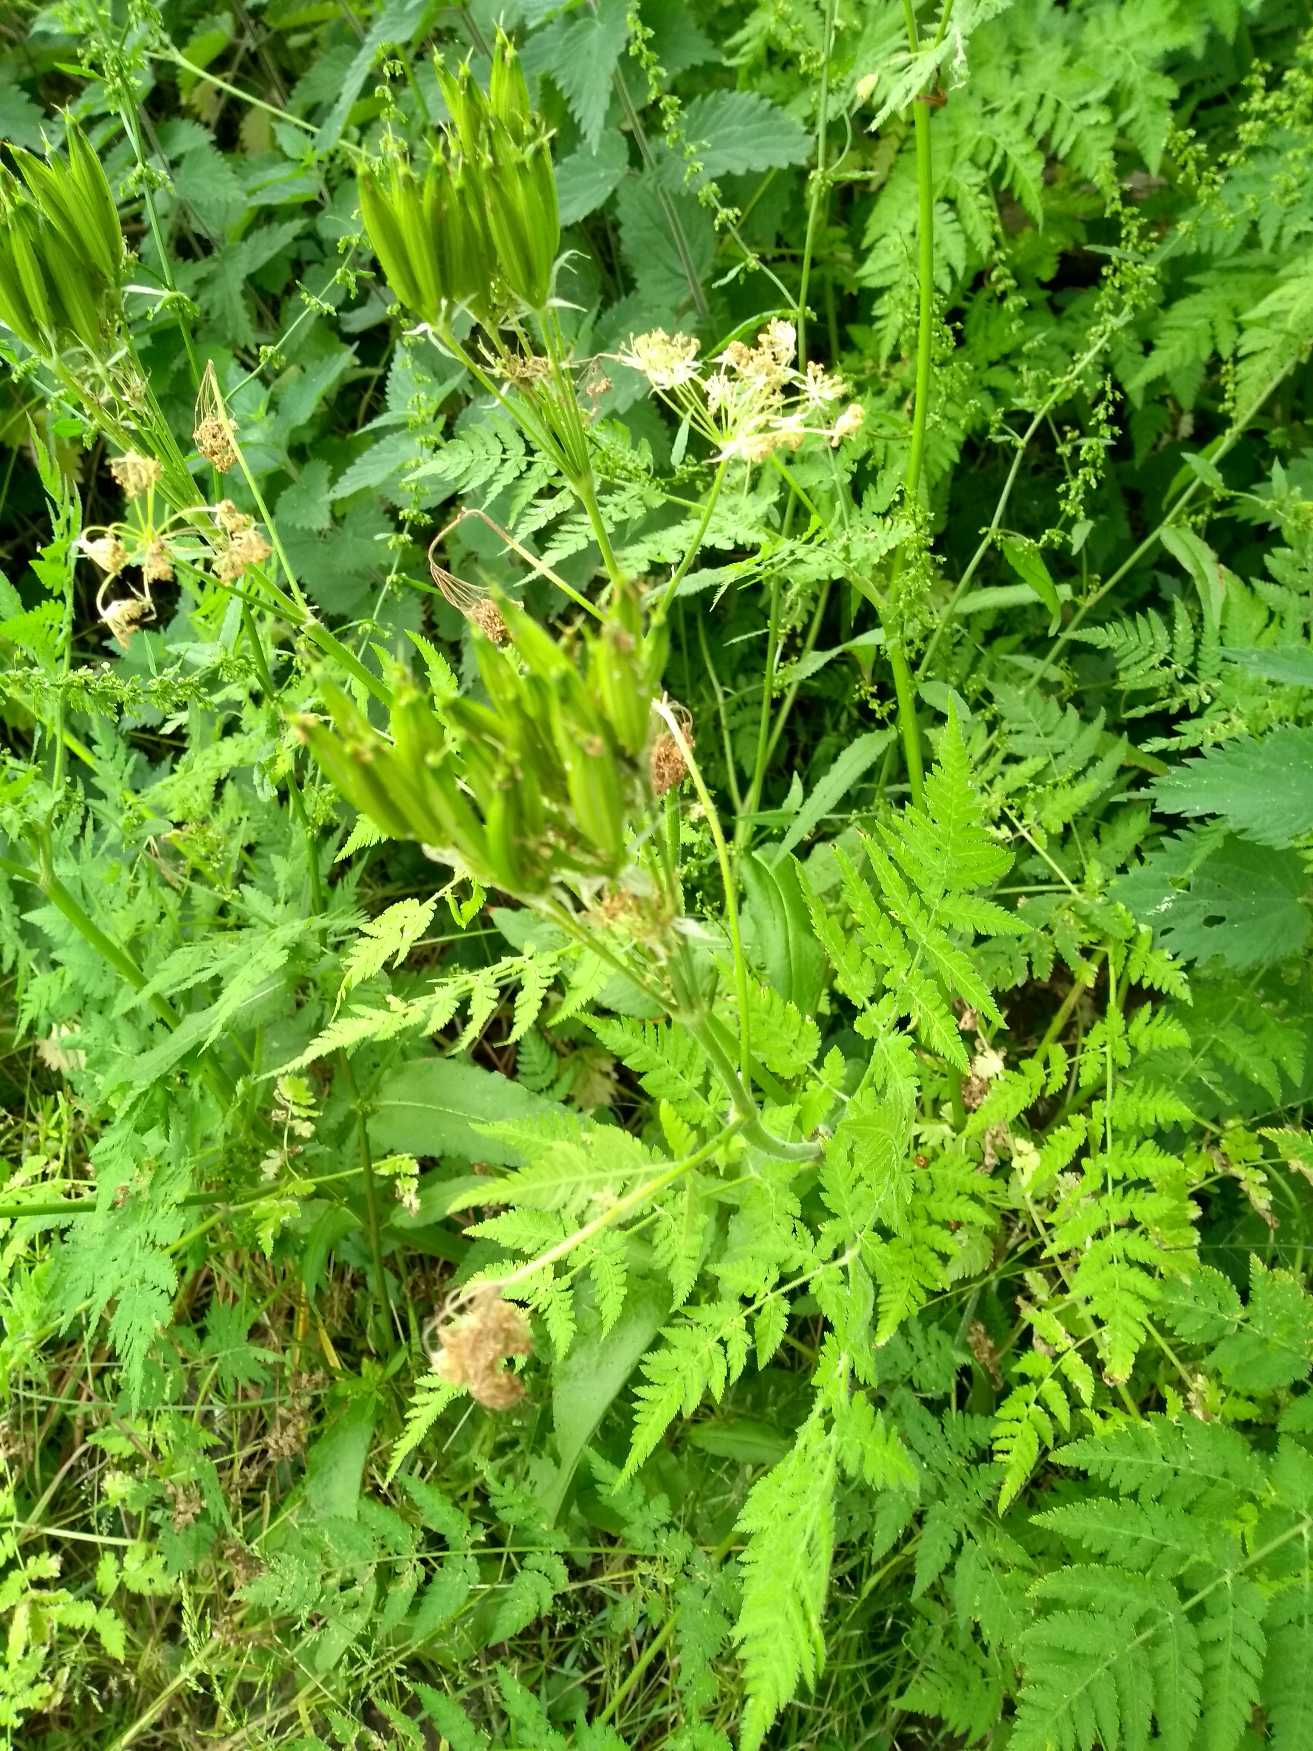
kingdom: Plantae
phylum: Tracheophyta
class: Magnoliopsida
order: Apiales
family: Apiaceae
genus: Myrrhis
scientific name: Myrrhis odorata
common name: Sødskærm
